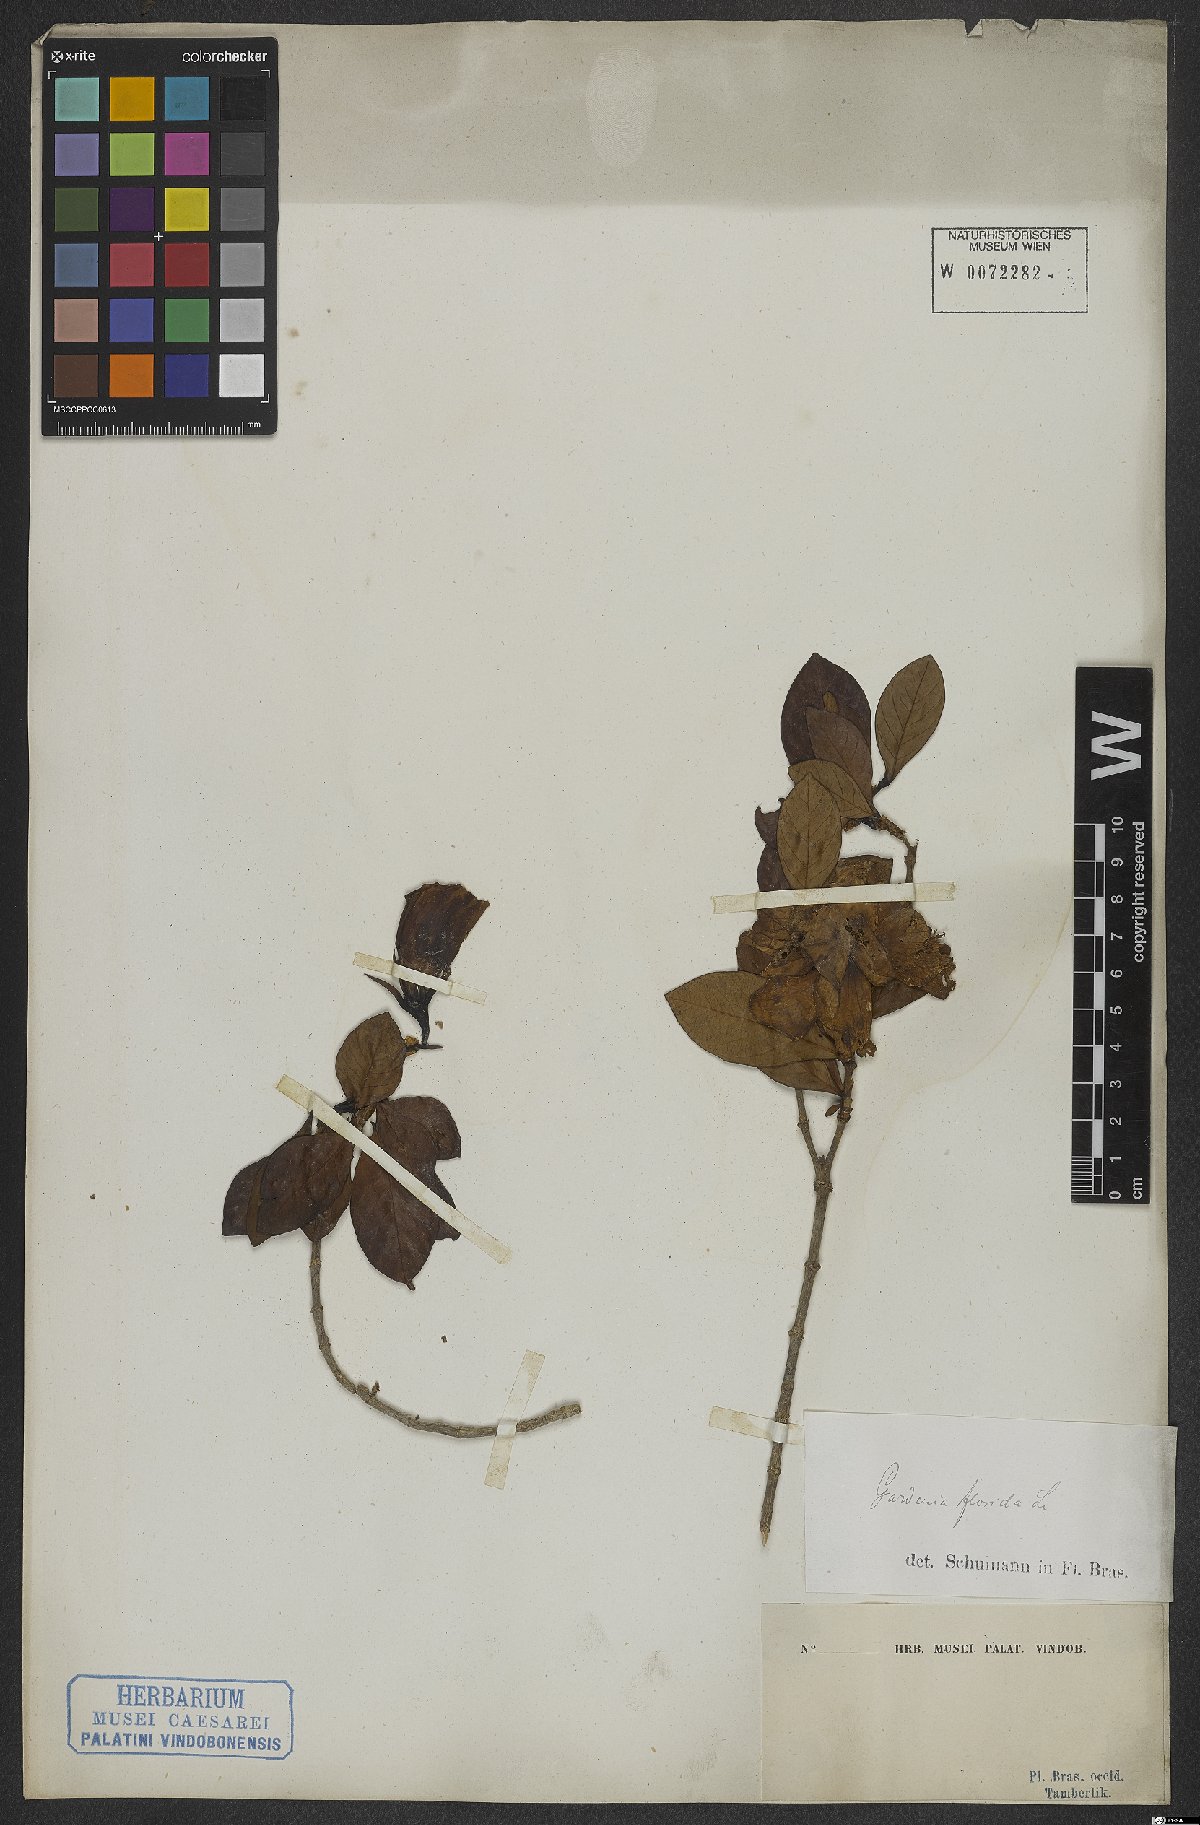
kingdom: Plantae
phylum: Tracheophyta
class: Magnoliopsida
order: Gentianales
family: Rubiaceae
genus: Gardenia
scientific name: Gardenia jasminoides
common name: Cape-jasmine
